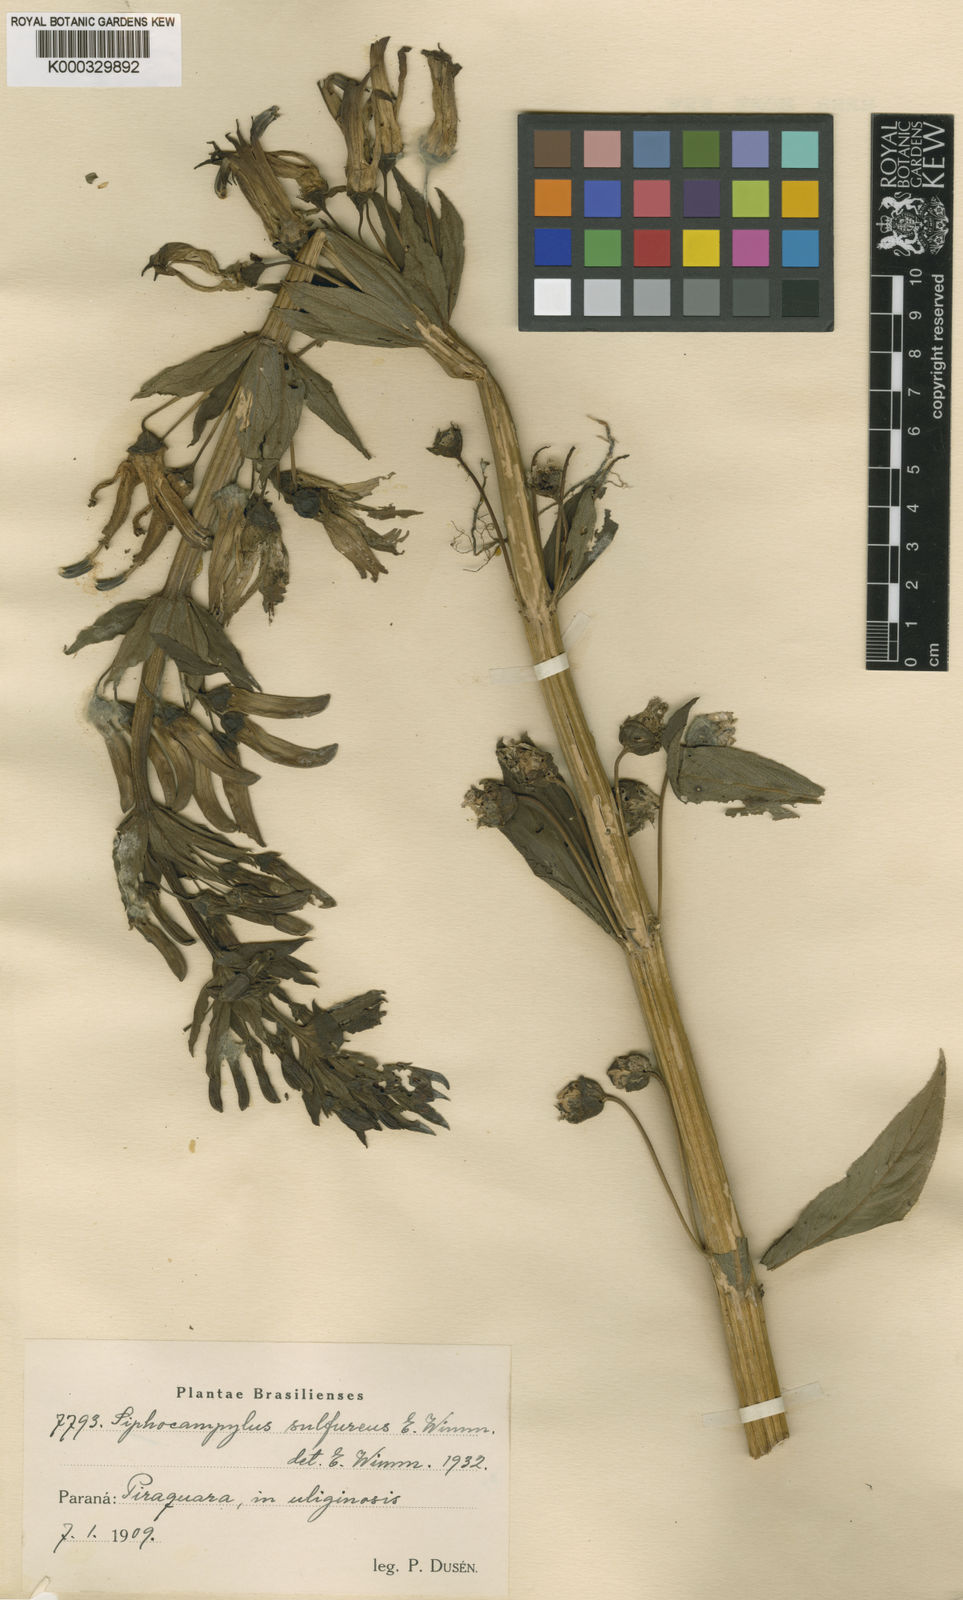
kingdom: Plantae
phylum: Tracheophyta
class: Magnoliopsida
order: Asterales
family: Campanulaceae
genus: Siphocampylus
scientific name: Siphocampylus sulfureus
